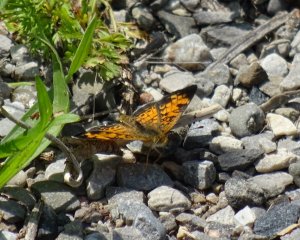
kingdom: Animalia
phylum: Arthropoda
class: Insecta
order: Lepidoptera
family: Nymphalidae
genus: Phyciodes
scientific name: Phyciodes tharos
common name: Pearl Crescent
